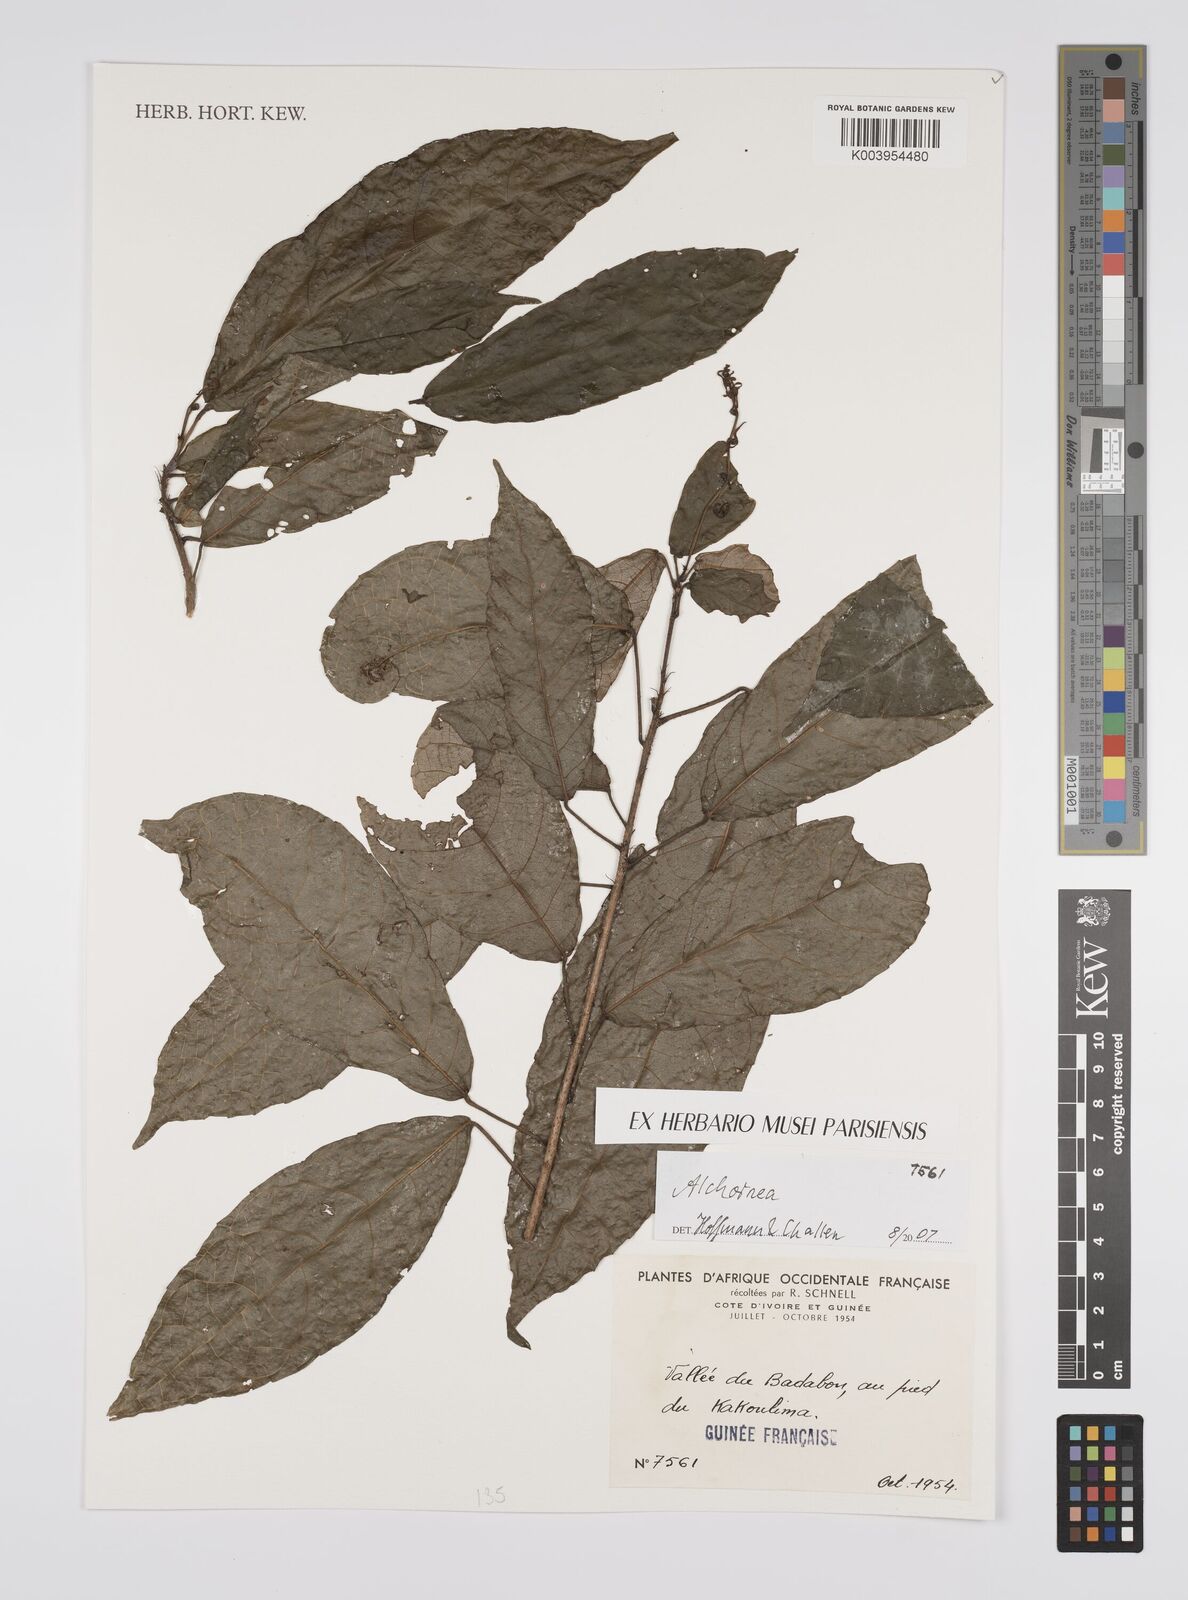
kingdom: Plantae
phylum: Tracheophyta
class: Magnoliopsida
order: Malpighiales
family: Euphorbiaceae
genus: Alchornea
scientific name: Alchornea
